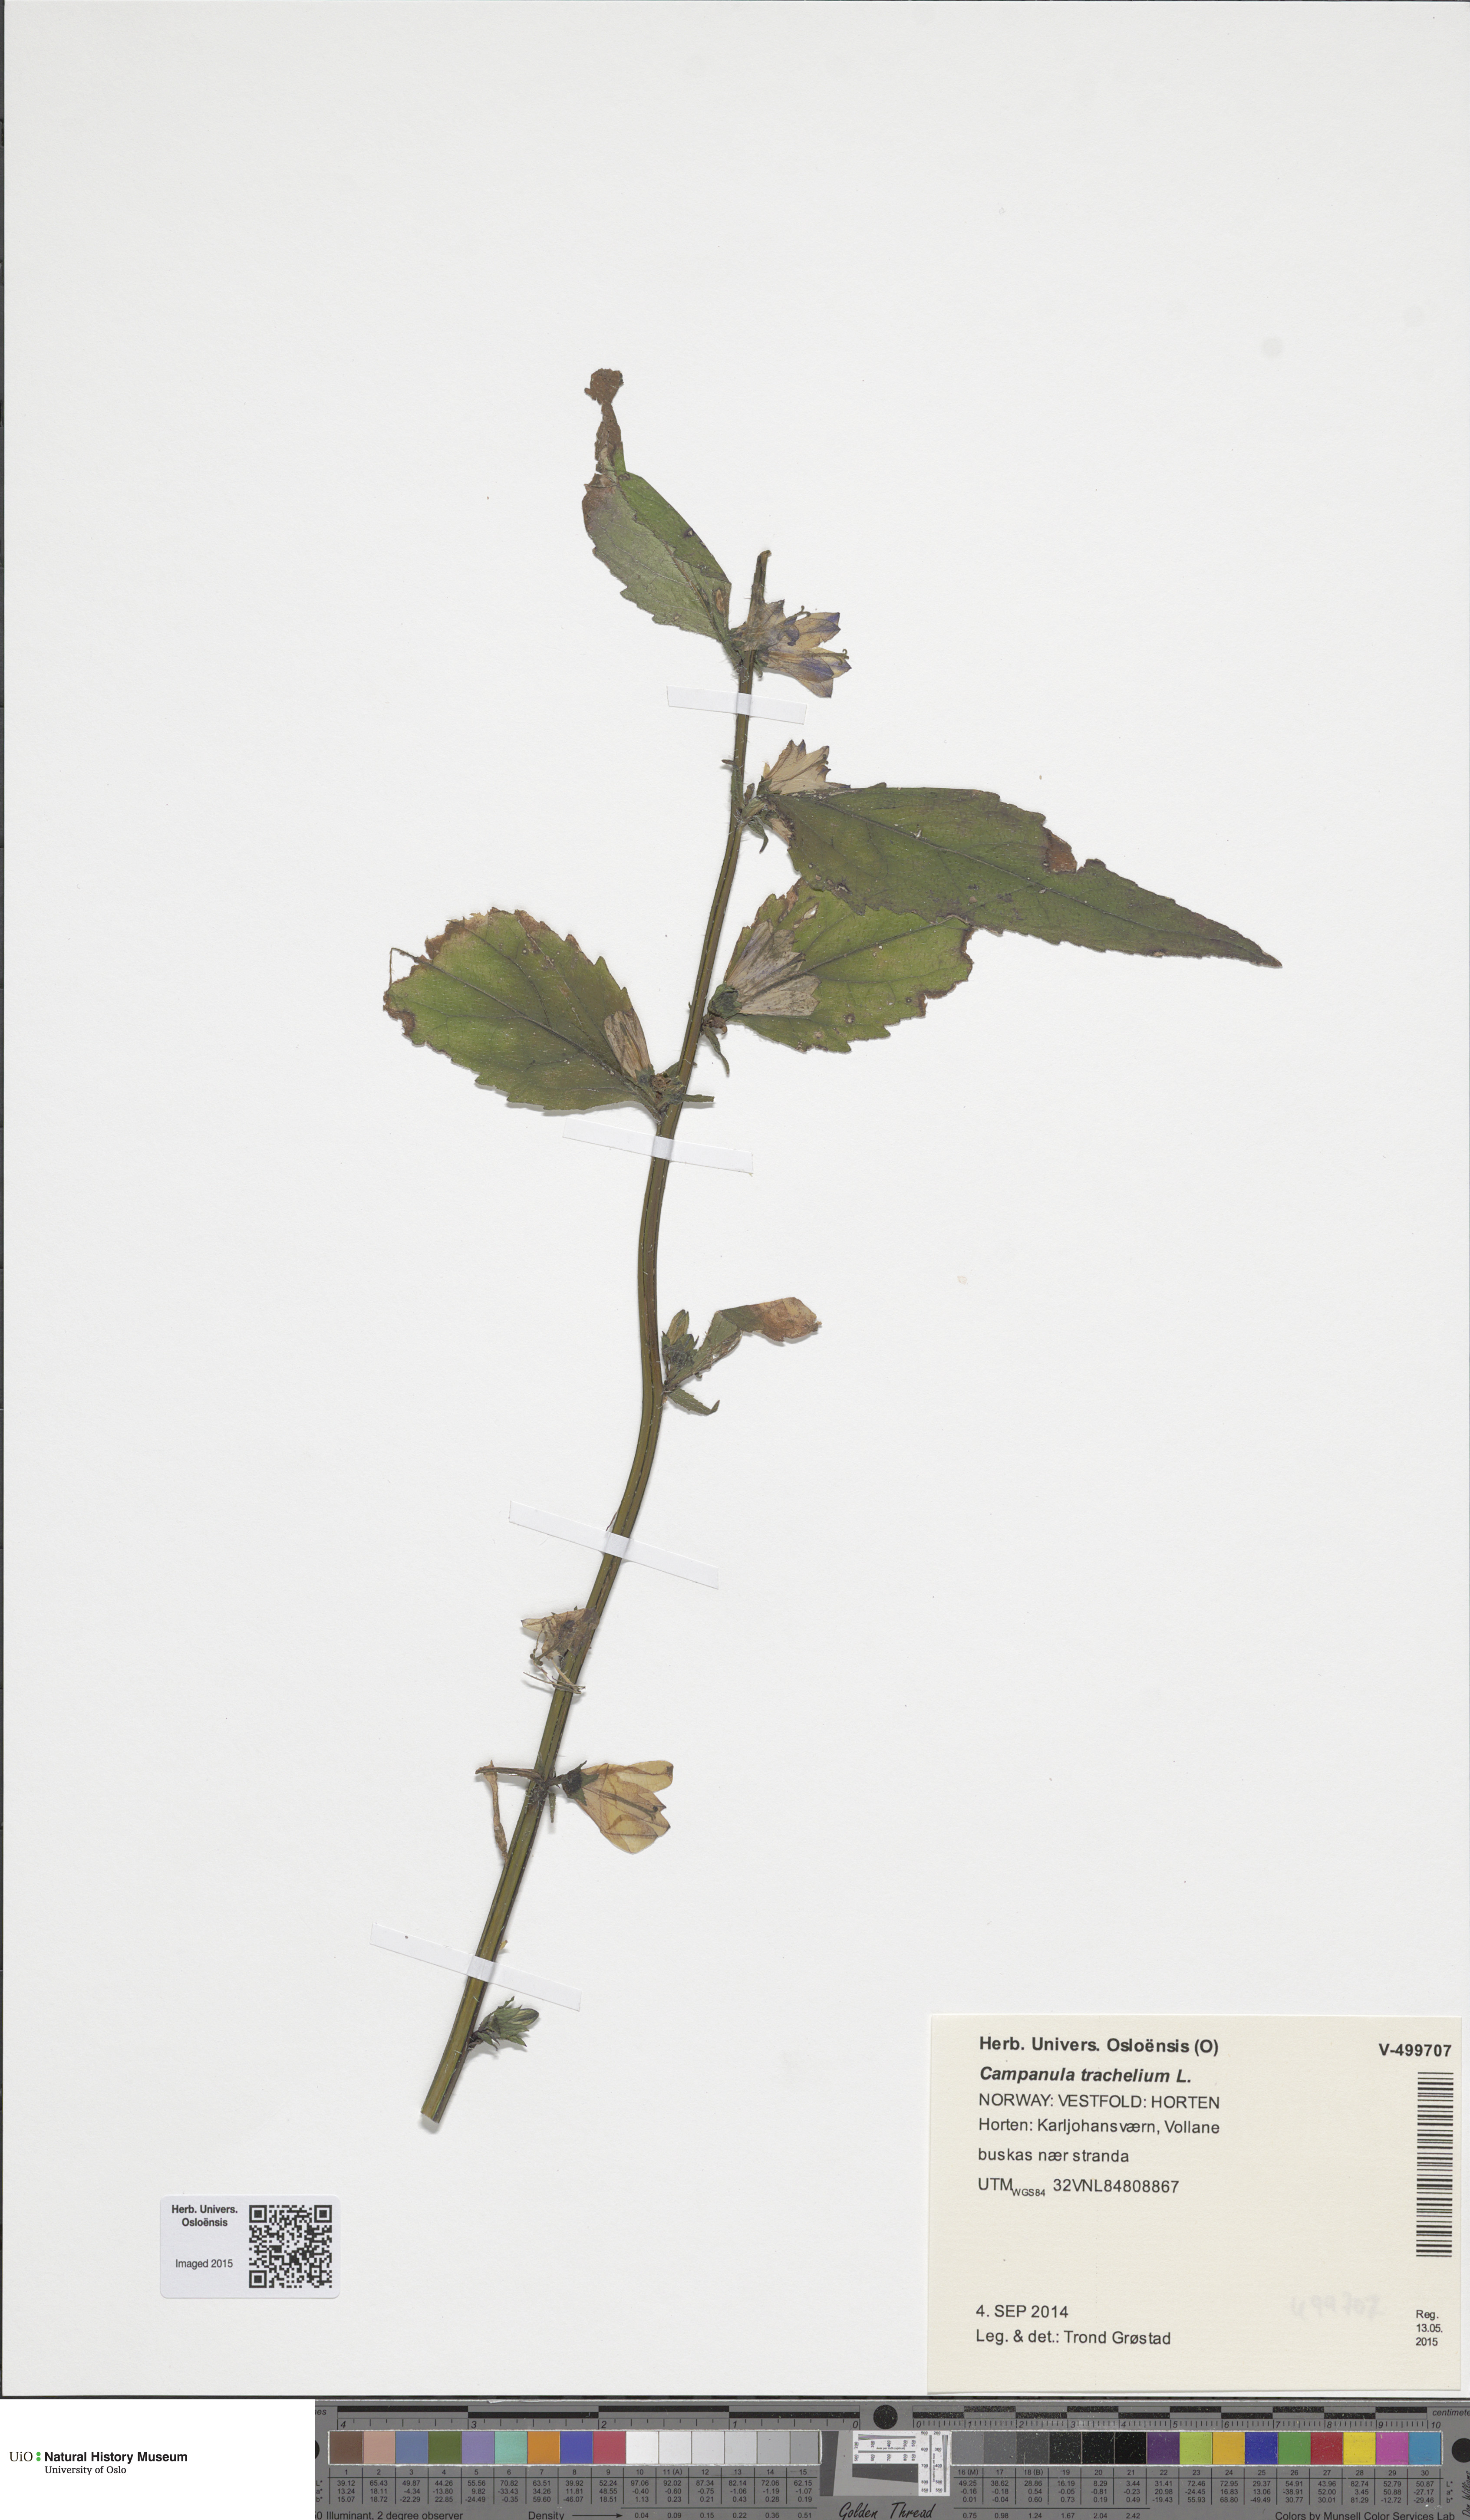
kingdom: Plantae
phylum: Tracheophyta
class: Magnoliopsida
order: Asterales
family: Campanulaceae
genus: Campanula
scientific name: Campanula trachelium
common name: Nettle-leaved bellflower
